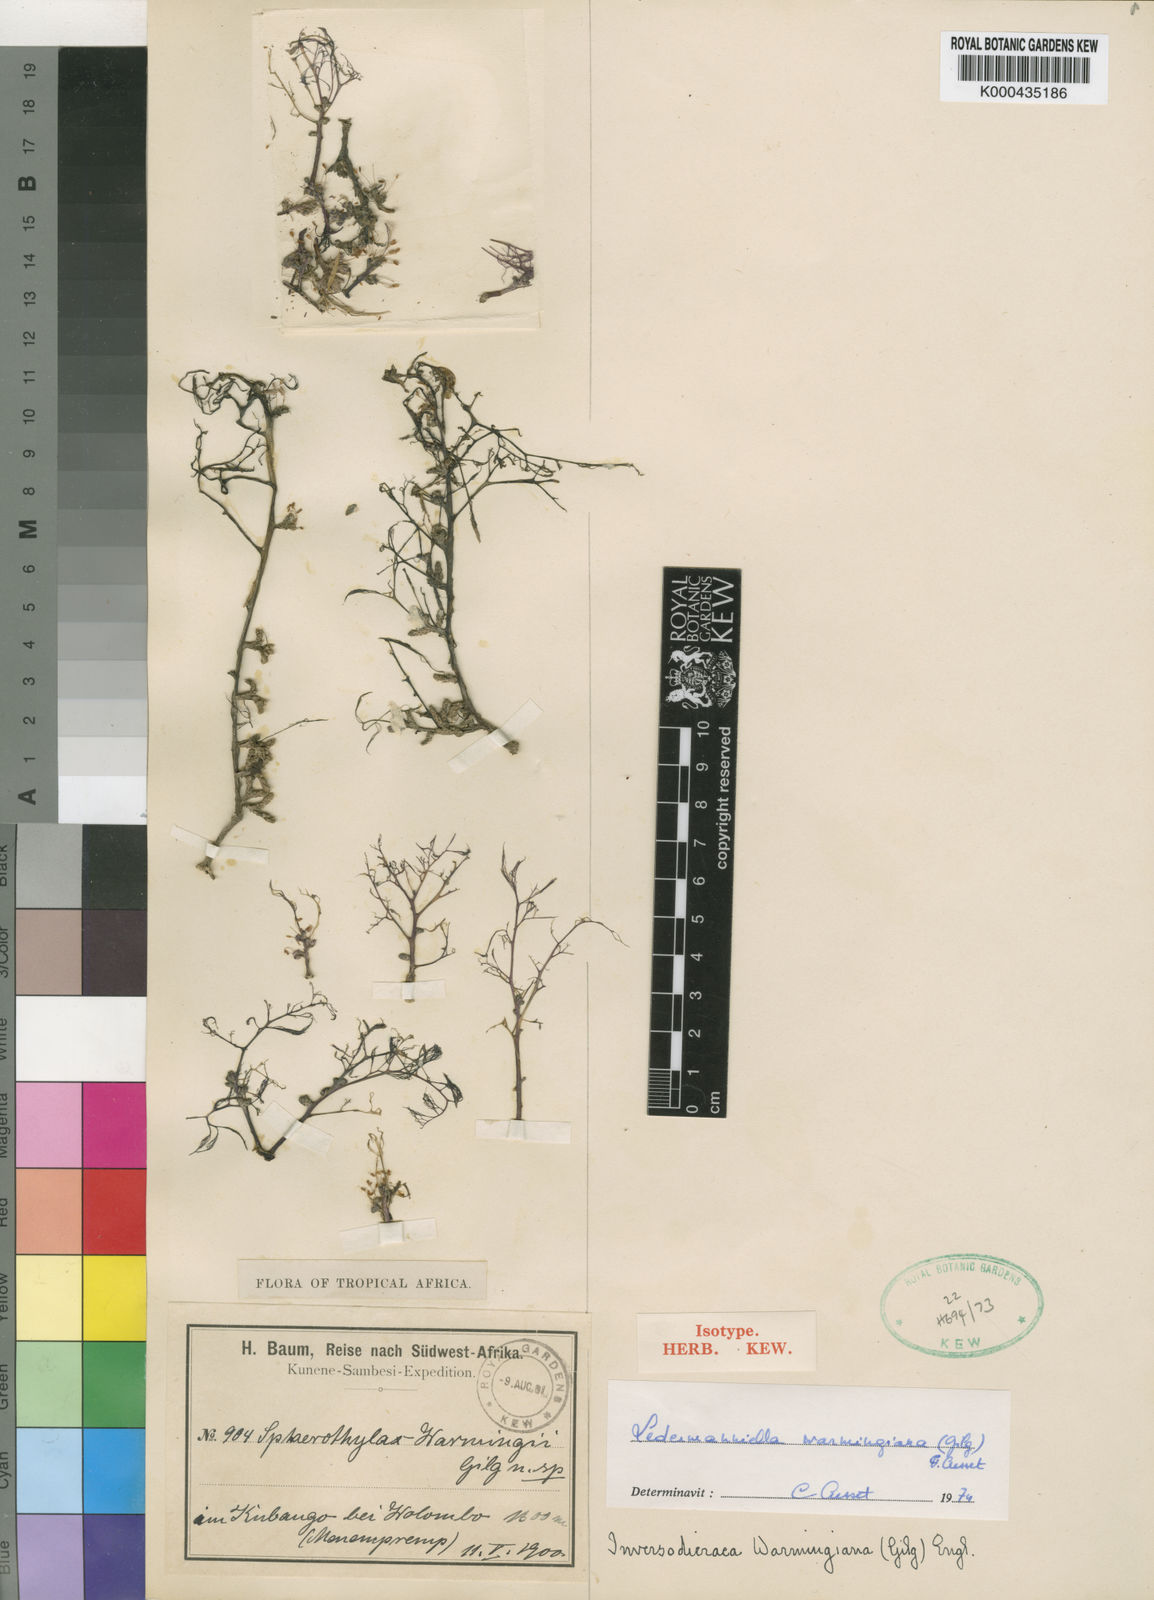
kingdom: Plantae
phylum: Tracheophyta
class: Magnoliopsida
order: Malpighiales
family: Podostemaceae
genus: Inversodicraea
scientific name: Inversodicraea warmingiana
